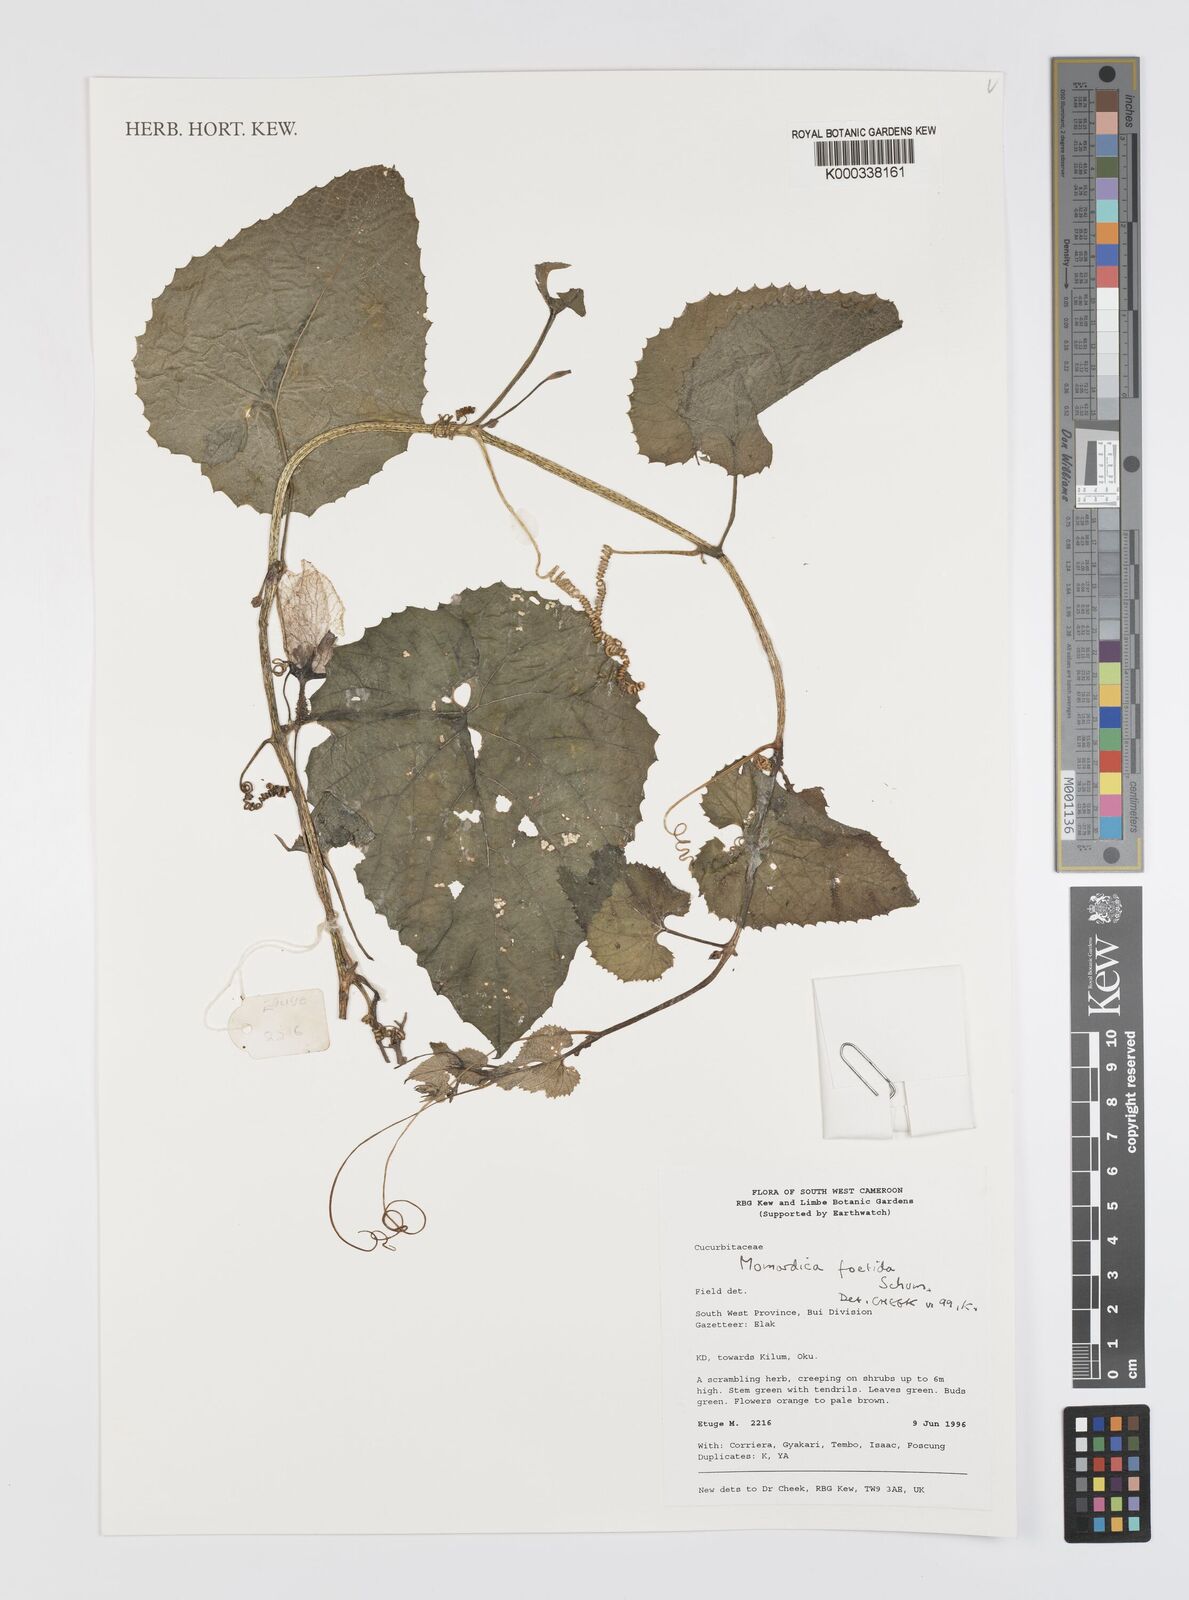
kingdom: Plantae
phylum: Tracheophyta
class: Magnoliopsida
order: Cucurbitales
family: Cucurbitaceae
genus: Momordica
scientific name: Momordica foetida
